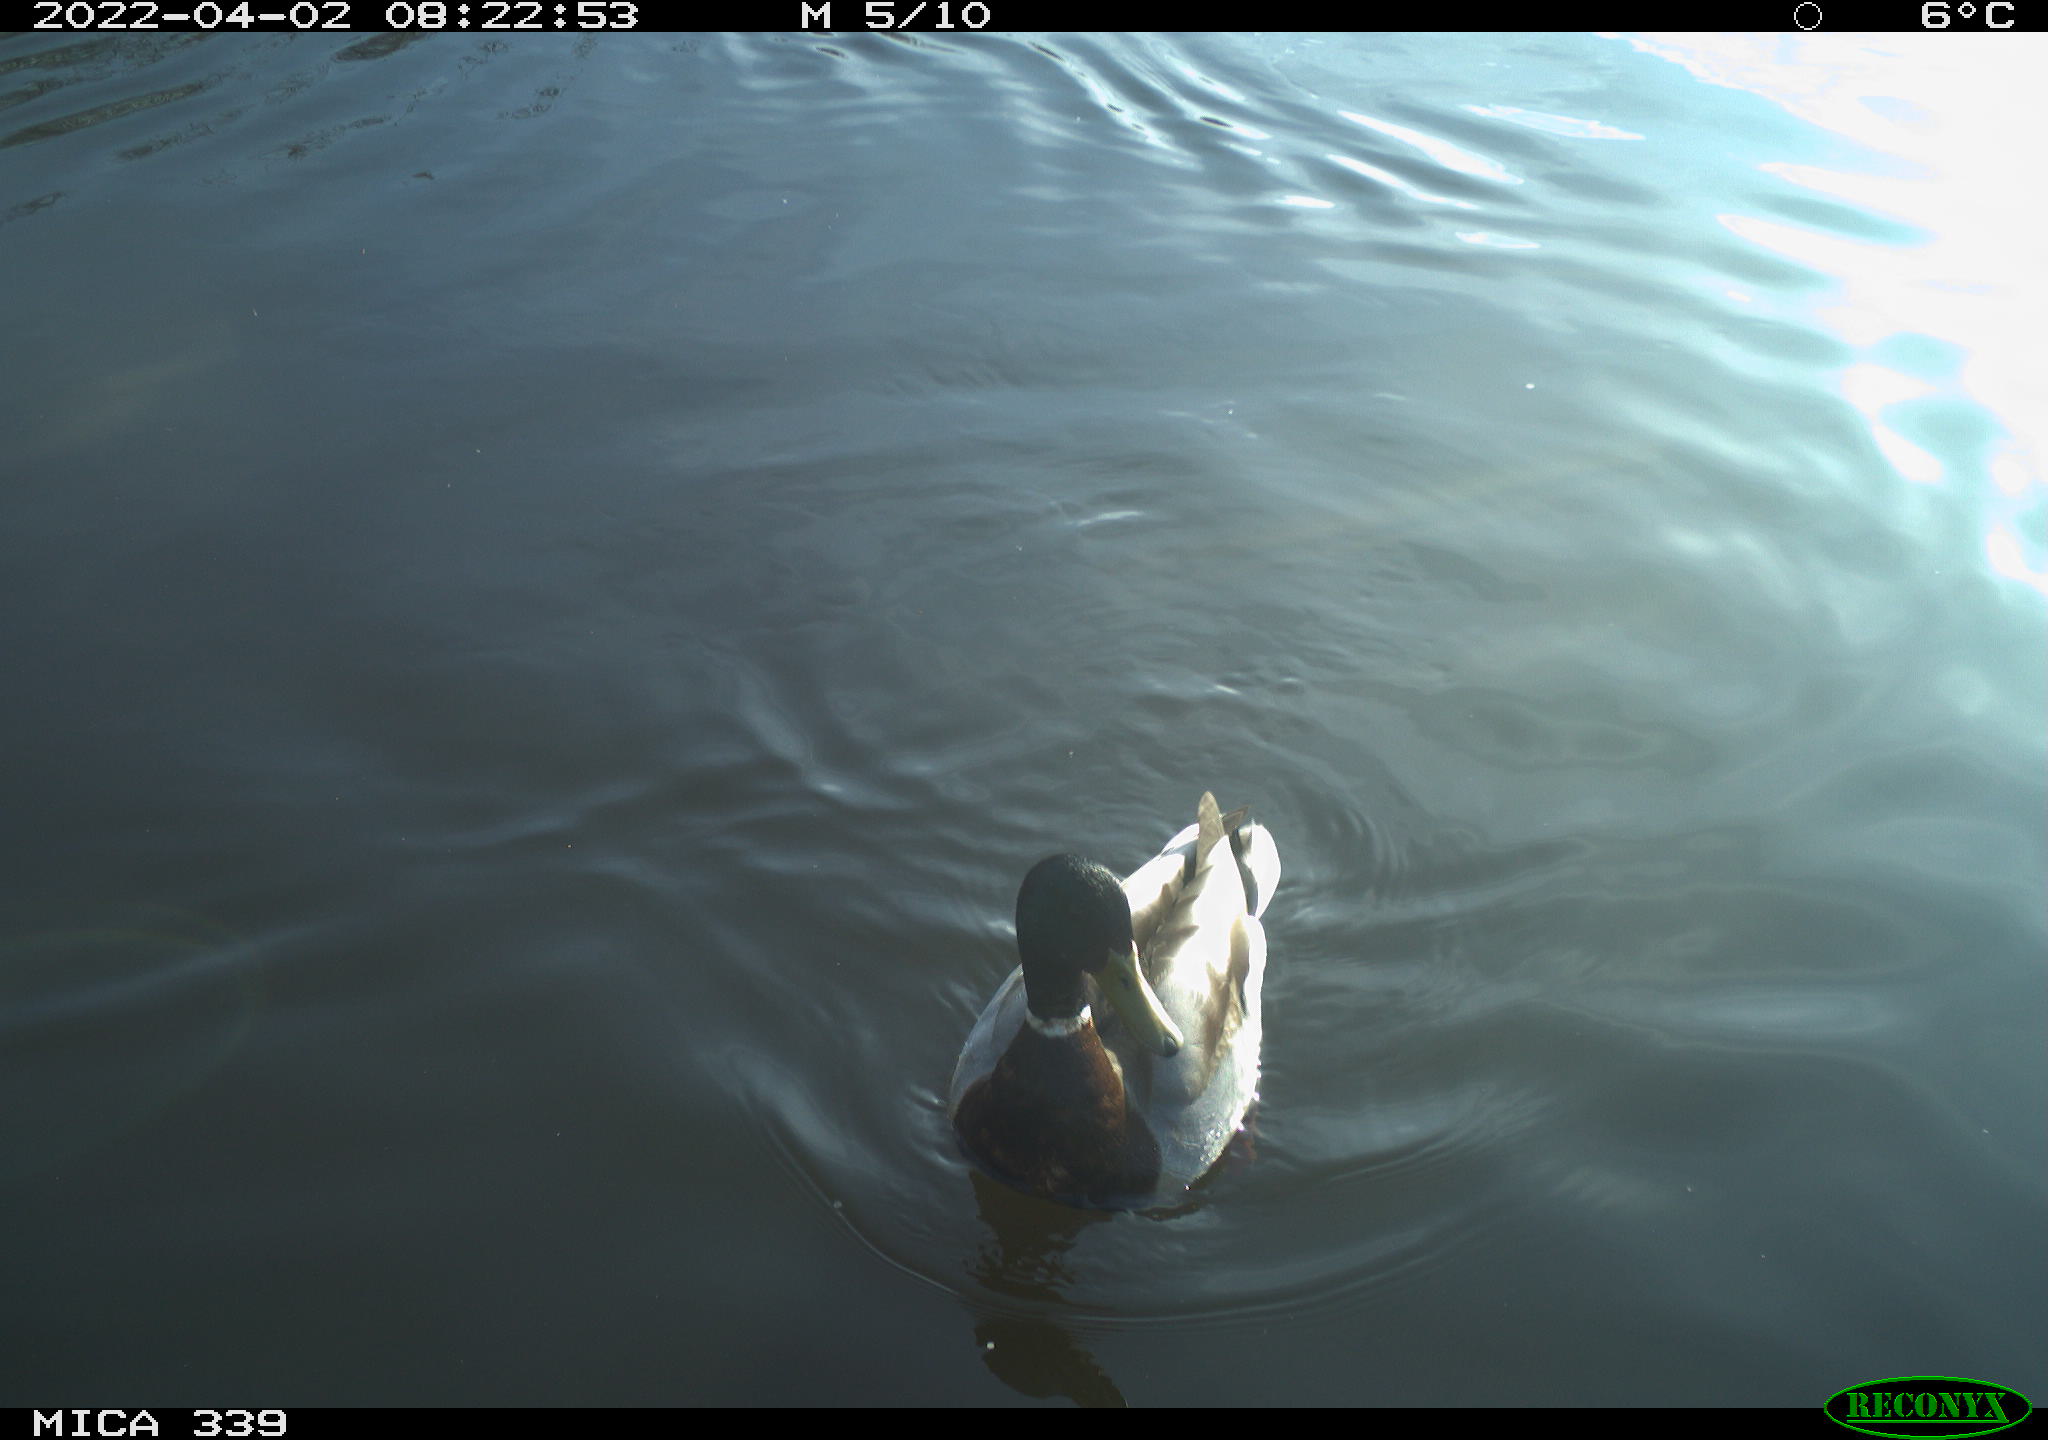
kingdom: Animalia
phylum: Chordata
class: Aves
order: Anseriformes
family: Anatidae
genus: Anas
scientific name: Anas platyrhynchos
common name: Mallard
